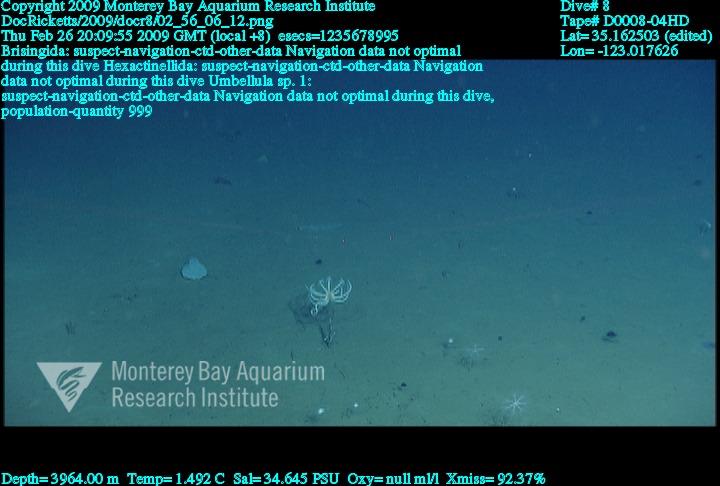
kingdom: Animalia
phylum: Porifera
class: Hexactinellida
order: Lyssacinosida
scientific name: Lyssacinosida
